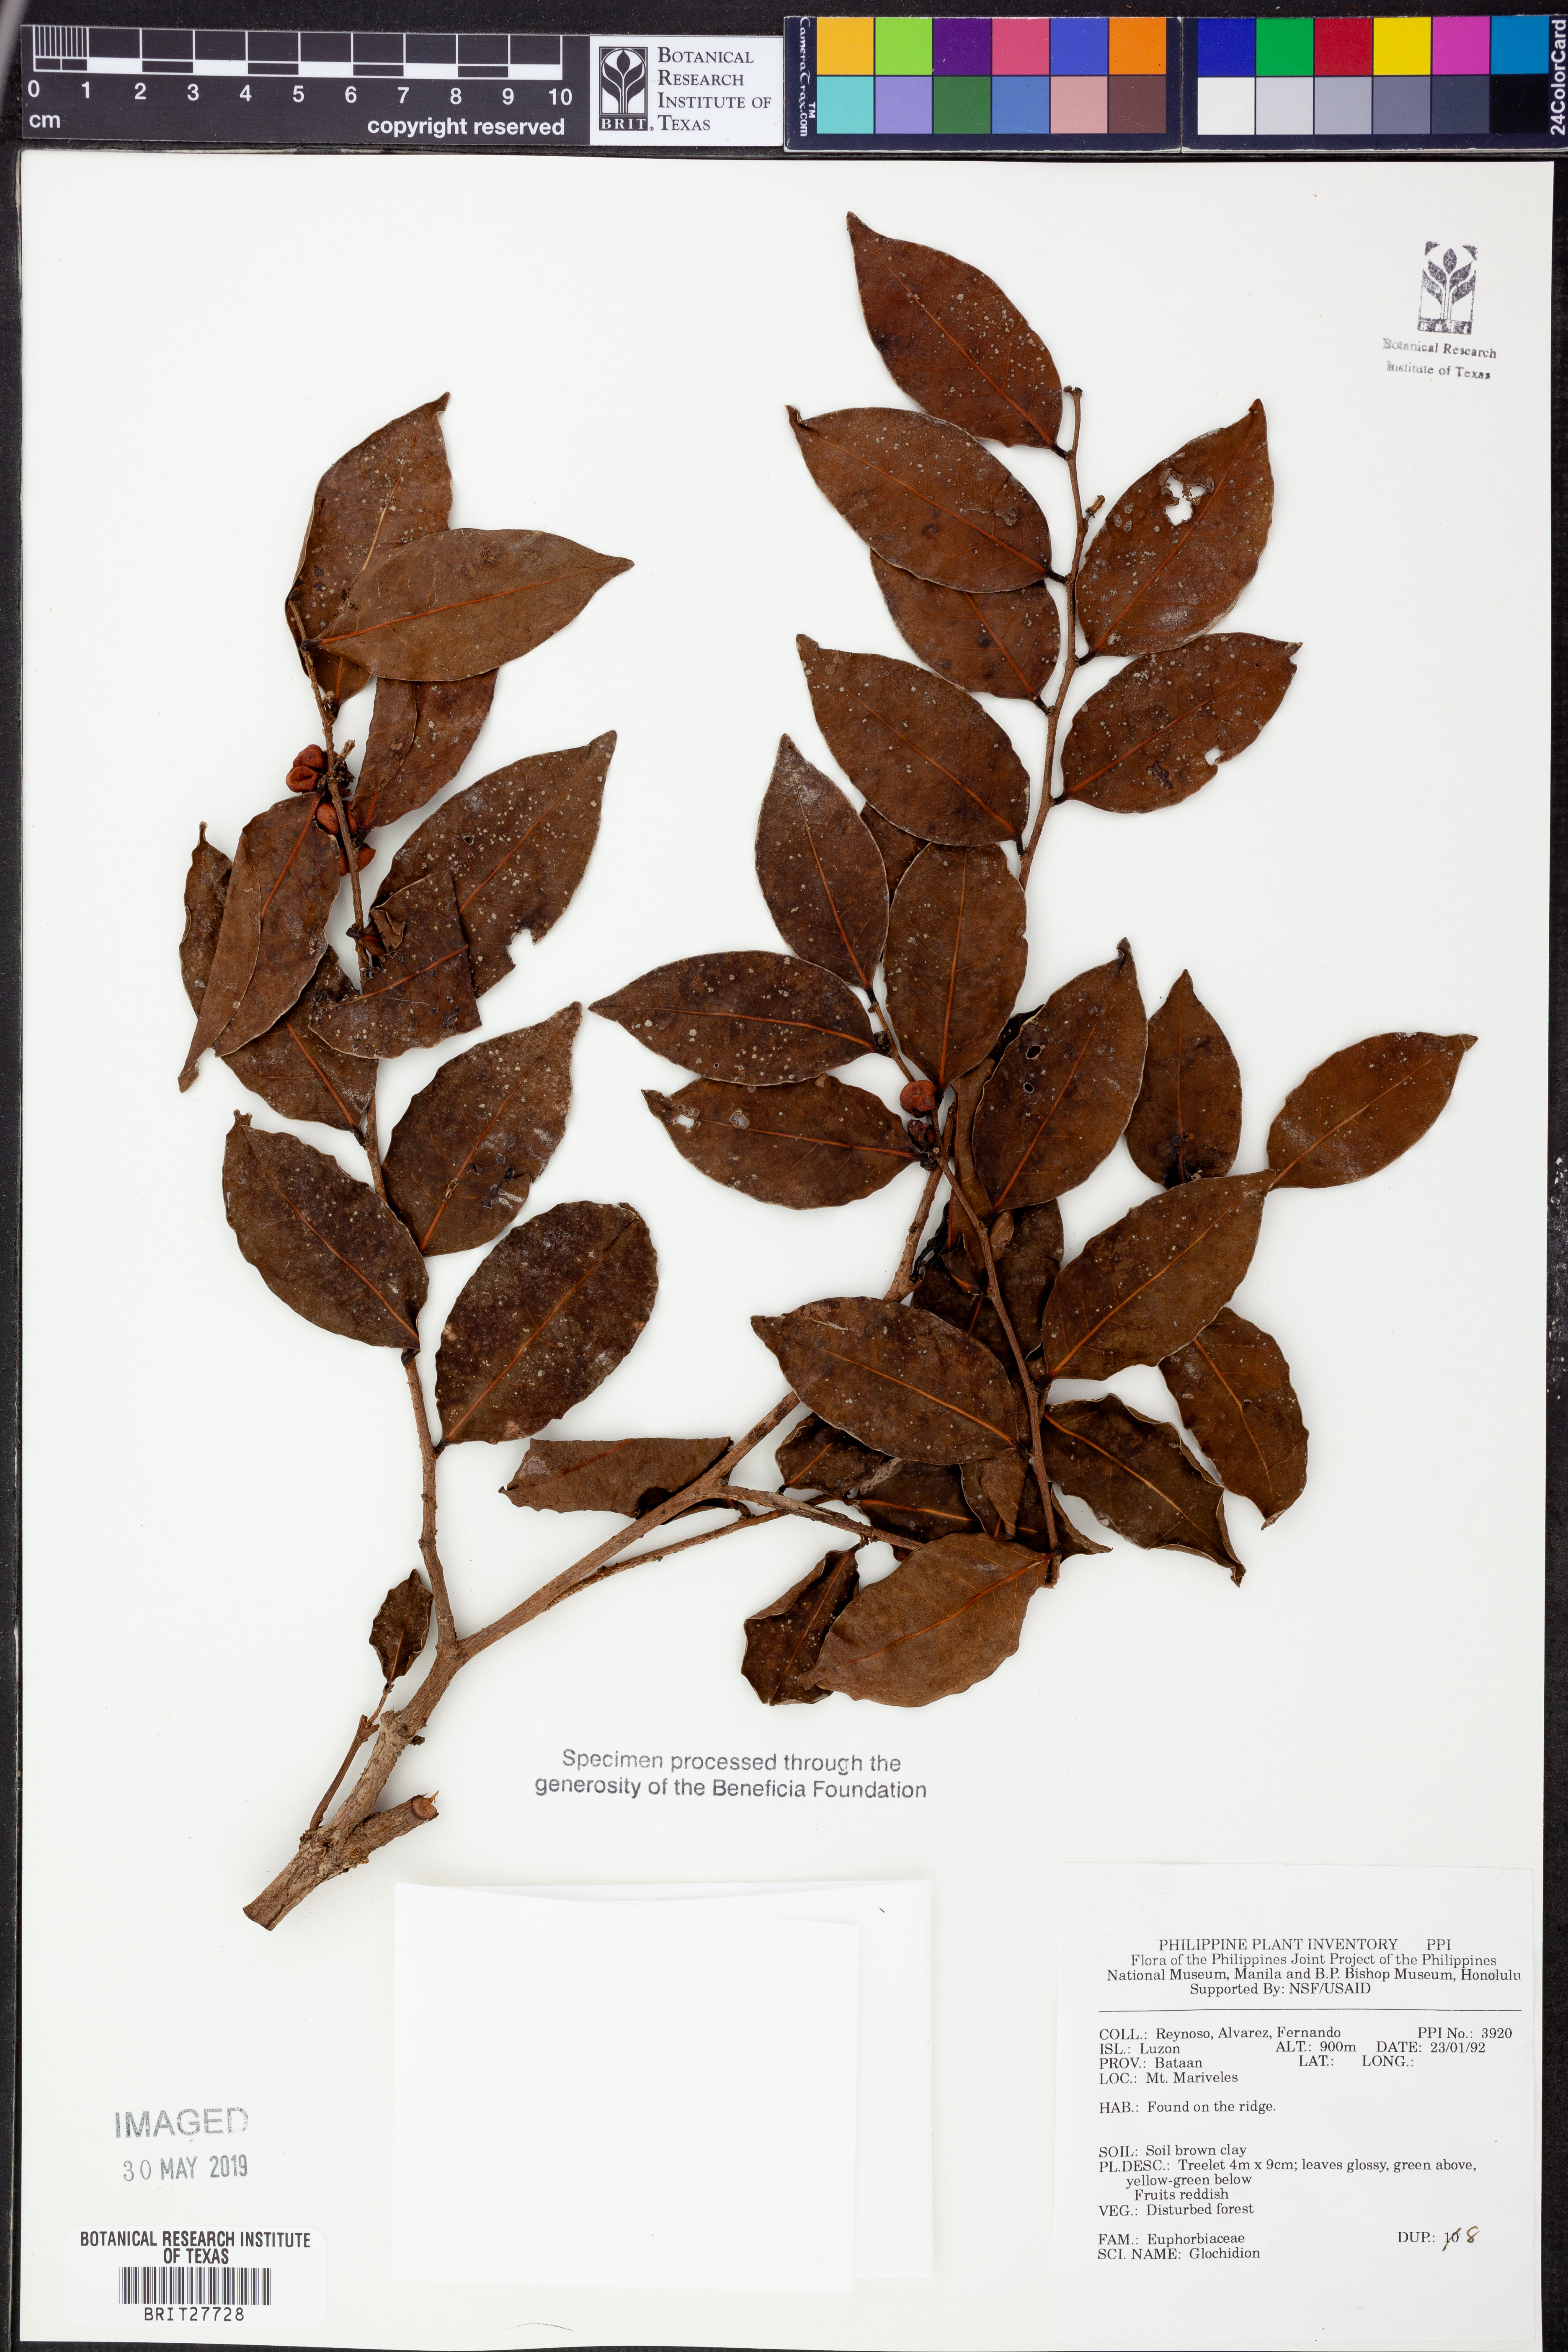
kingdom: Plantae
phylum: Tracheophyta
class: Magnoliopsida
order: Malpighiales
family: Phyllanthaceae
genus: Glochidion
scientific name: Glochidion
